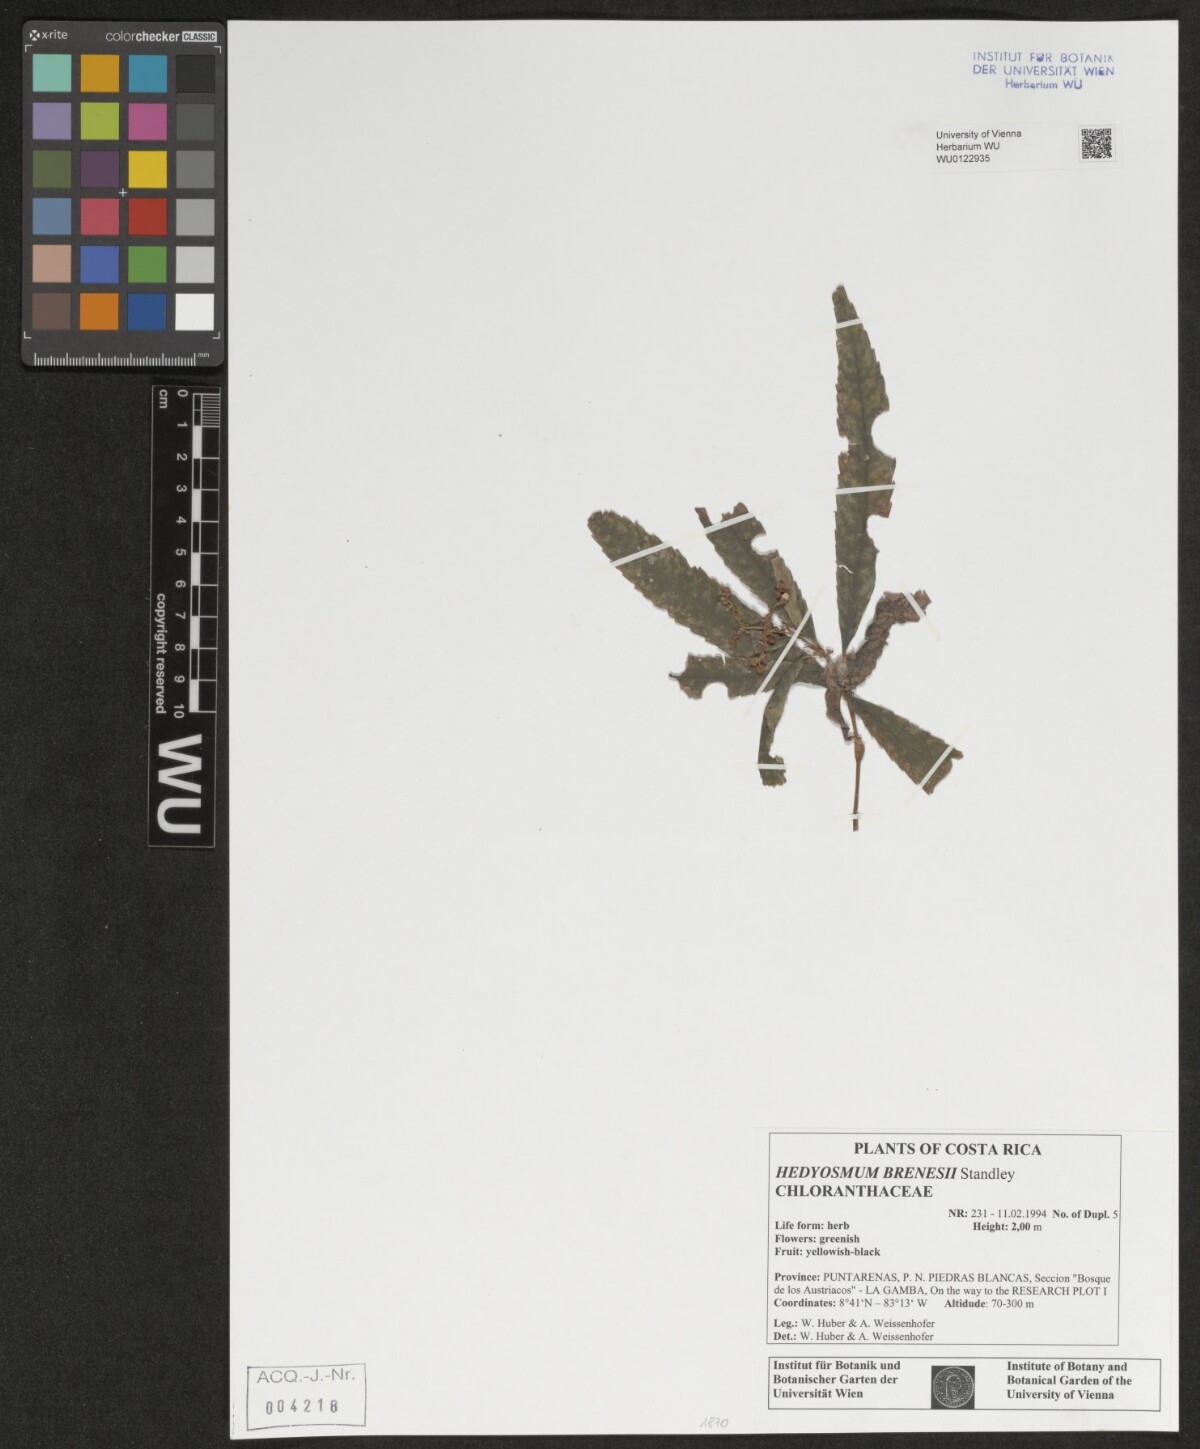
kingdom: Plantae
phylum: Tracheophyta
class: Magnoliopsida
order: Chloranthales
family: Chloranthaceae
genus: Hedyosmum
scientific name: Hedyosmum brenesii
